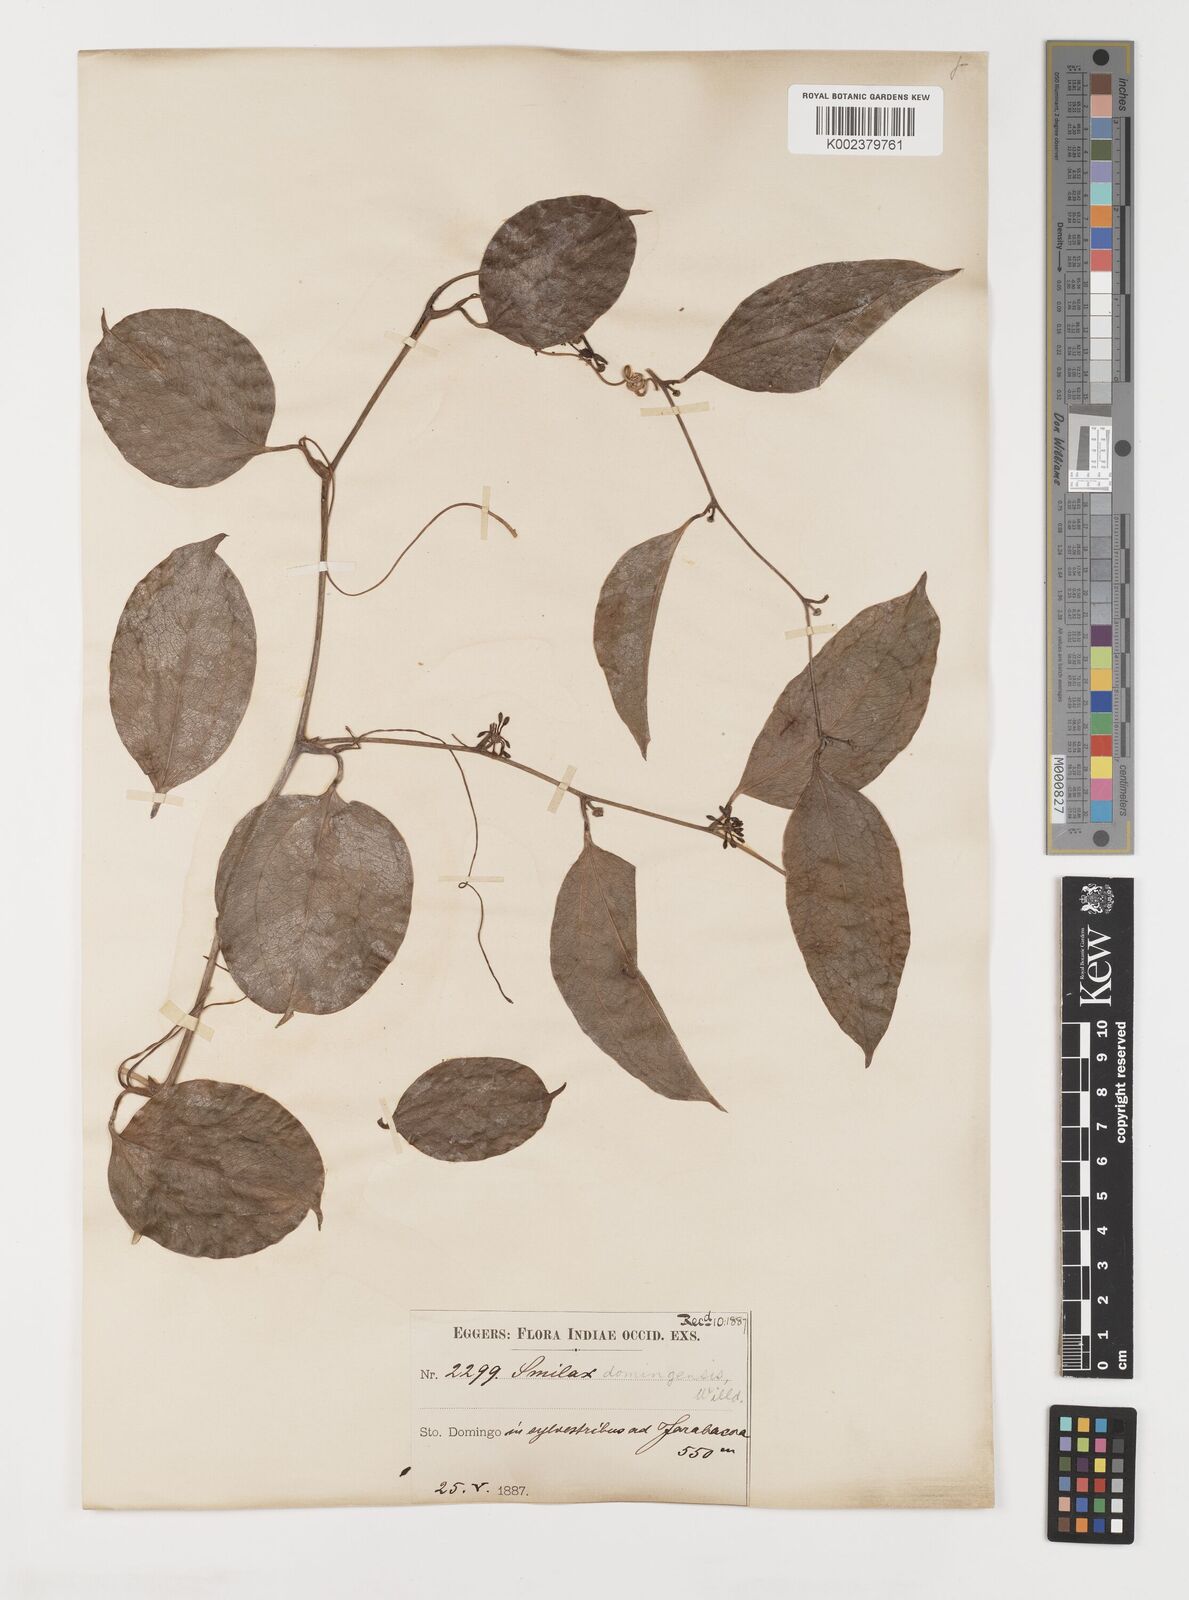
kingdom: Plantae
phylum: Tracheophyta
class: Liliopsida
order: Liliales
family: Smilacaceae
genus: Smilax
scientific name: Smilax domingensis
